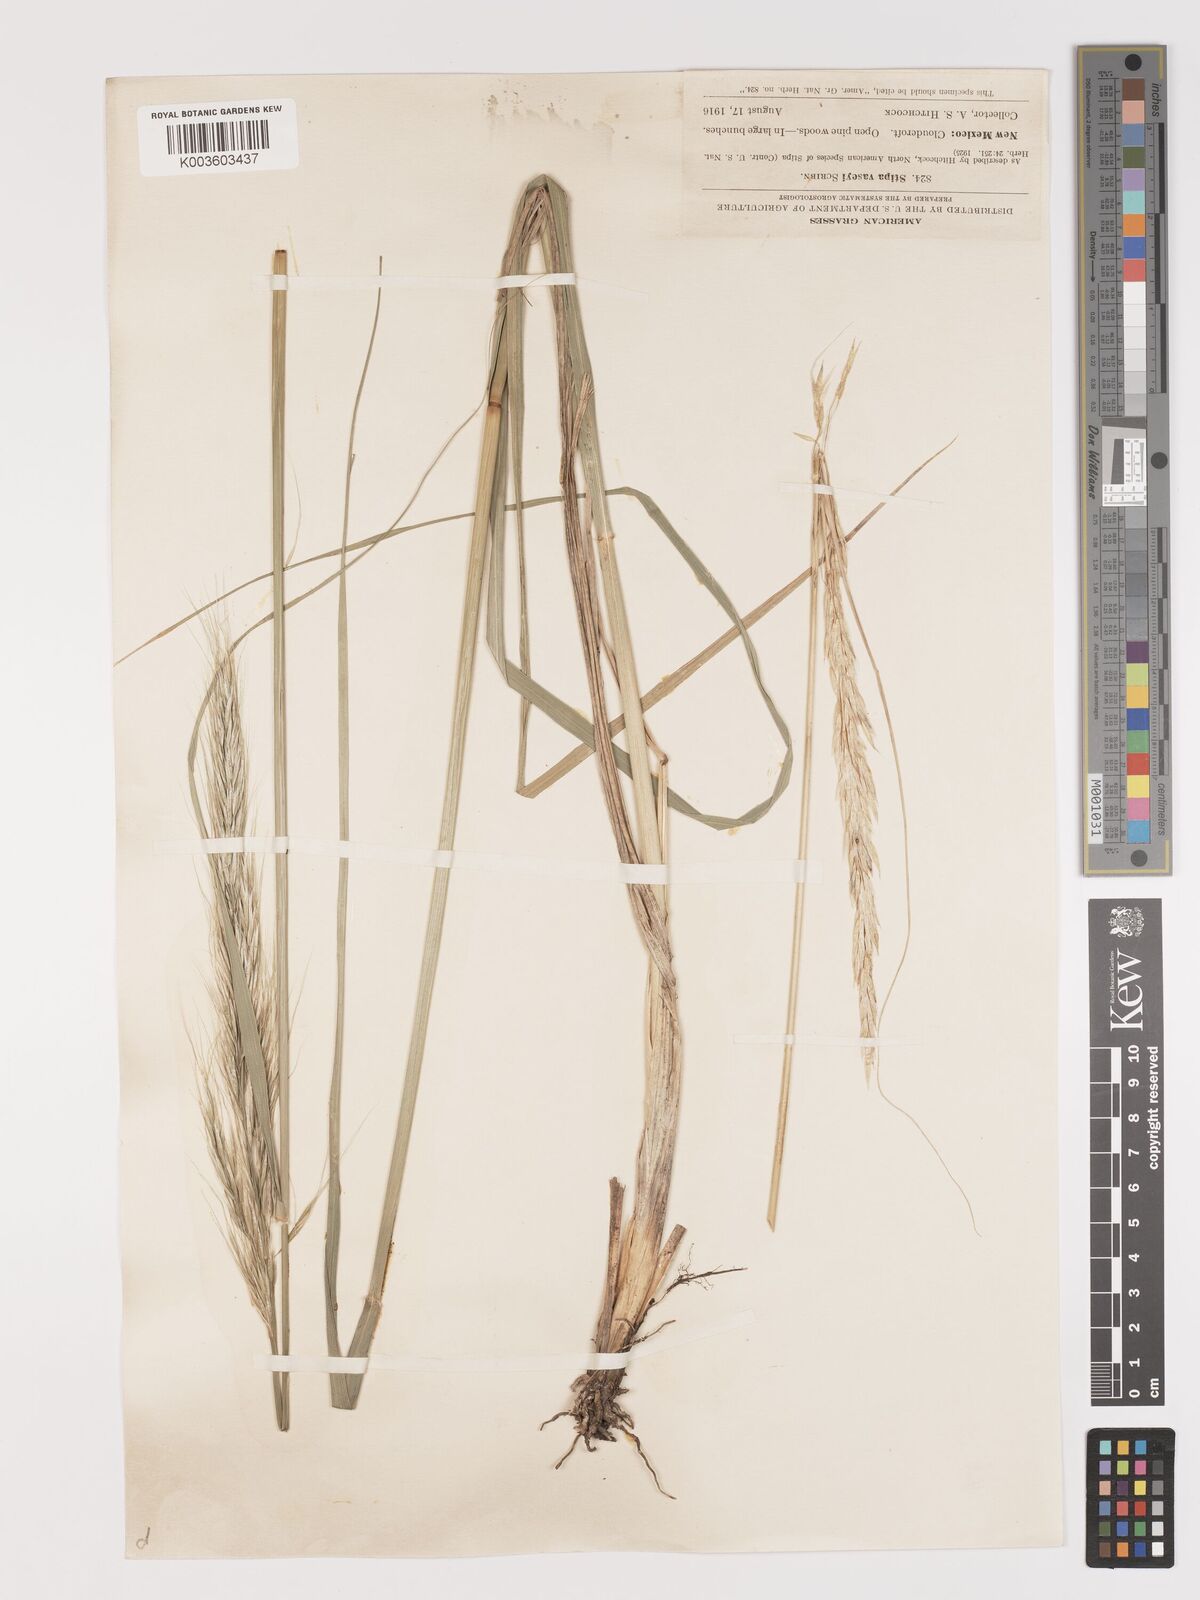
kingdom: Plantae
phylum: Tracheophyta
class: Liliopsida
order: Poales
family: Poaceae
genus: Eriocoma
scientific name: Eriocoma robusta
